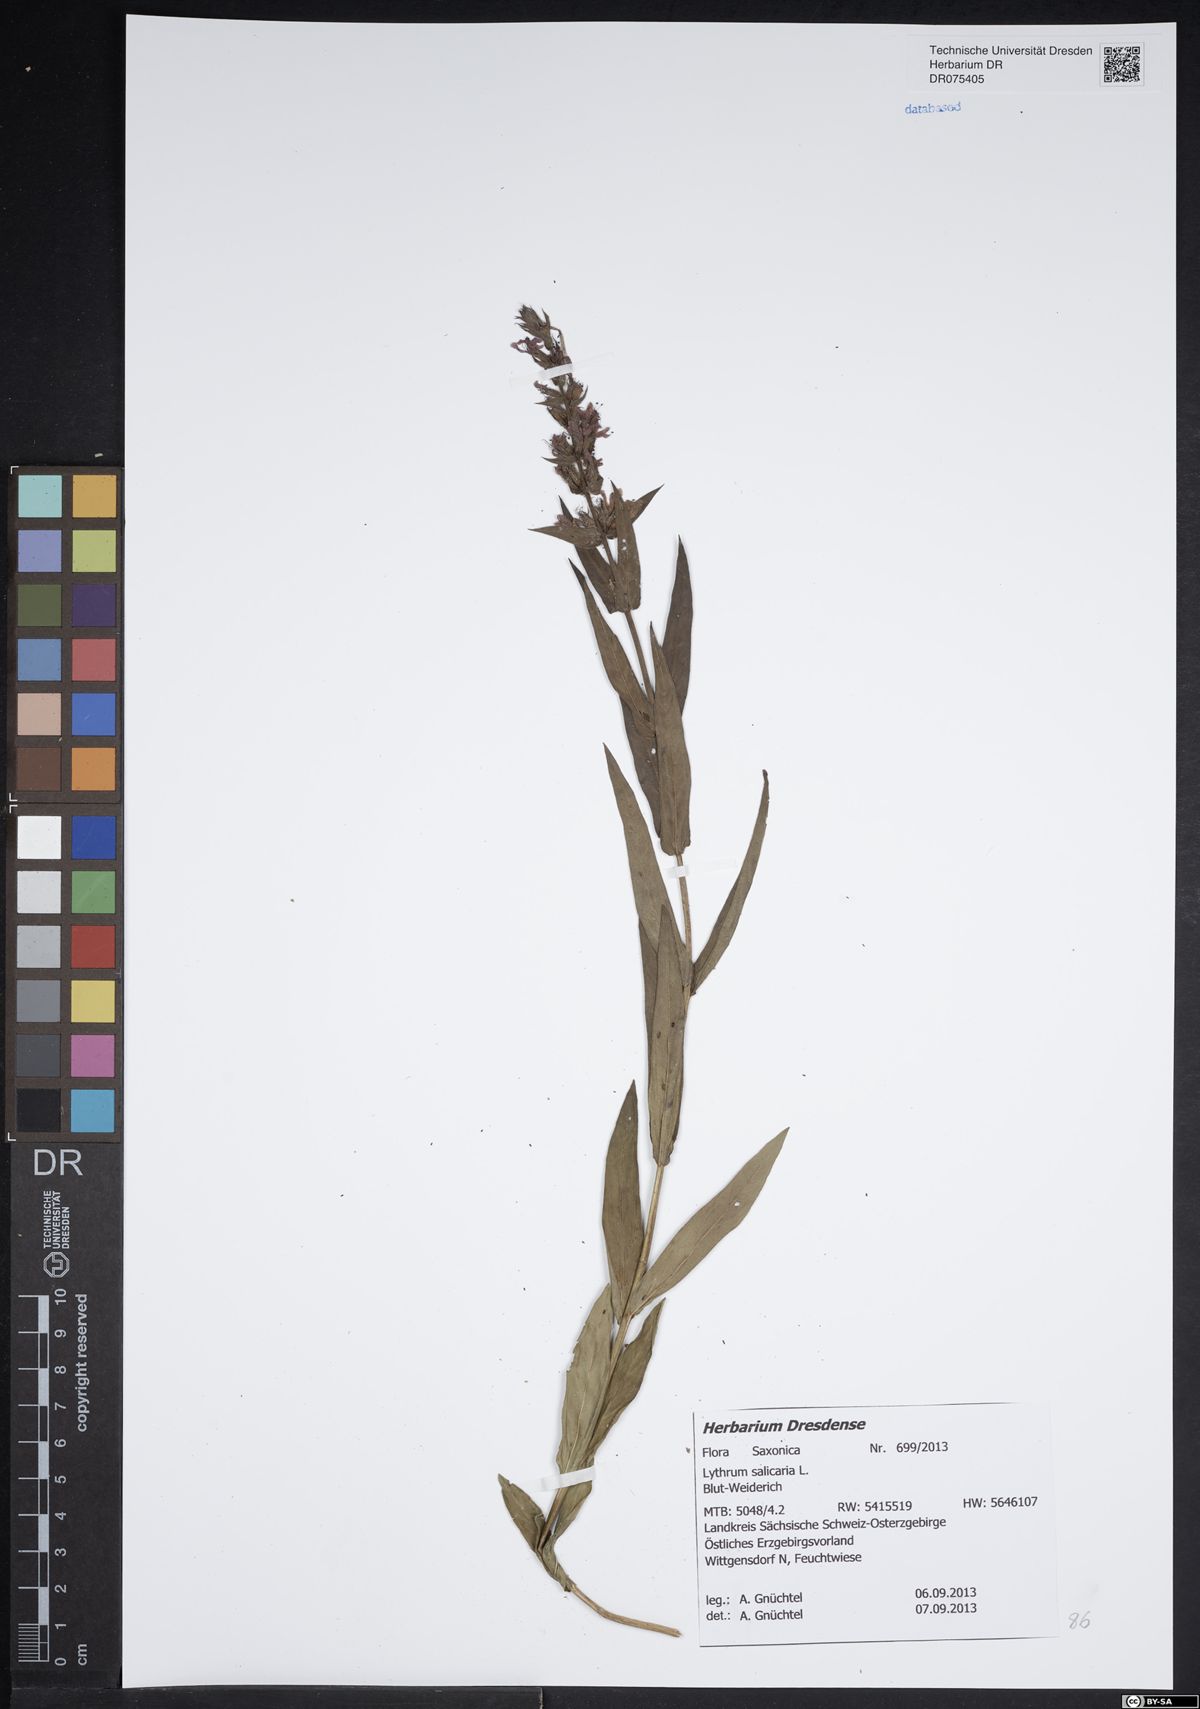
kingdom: Plantae
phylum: Tracheophyta
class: Magnoliopsida
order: Myrtales
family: Lythraceae
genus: Lythrum
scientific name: Lythrum salicaria
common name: Purple loosestrife
